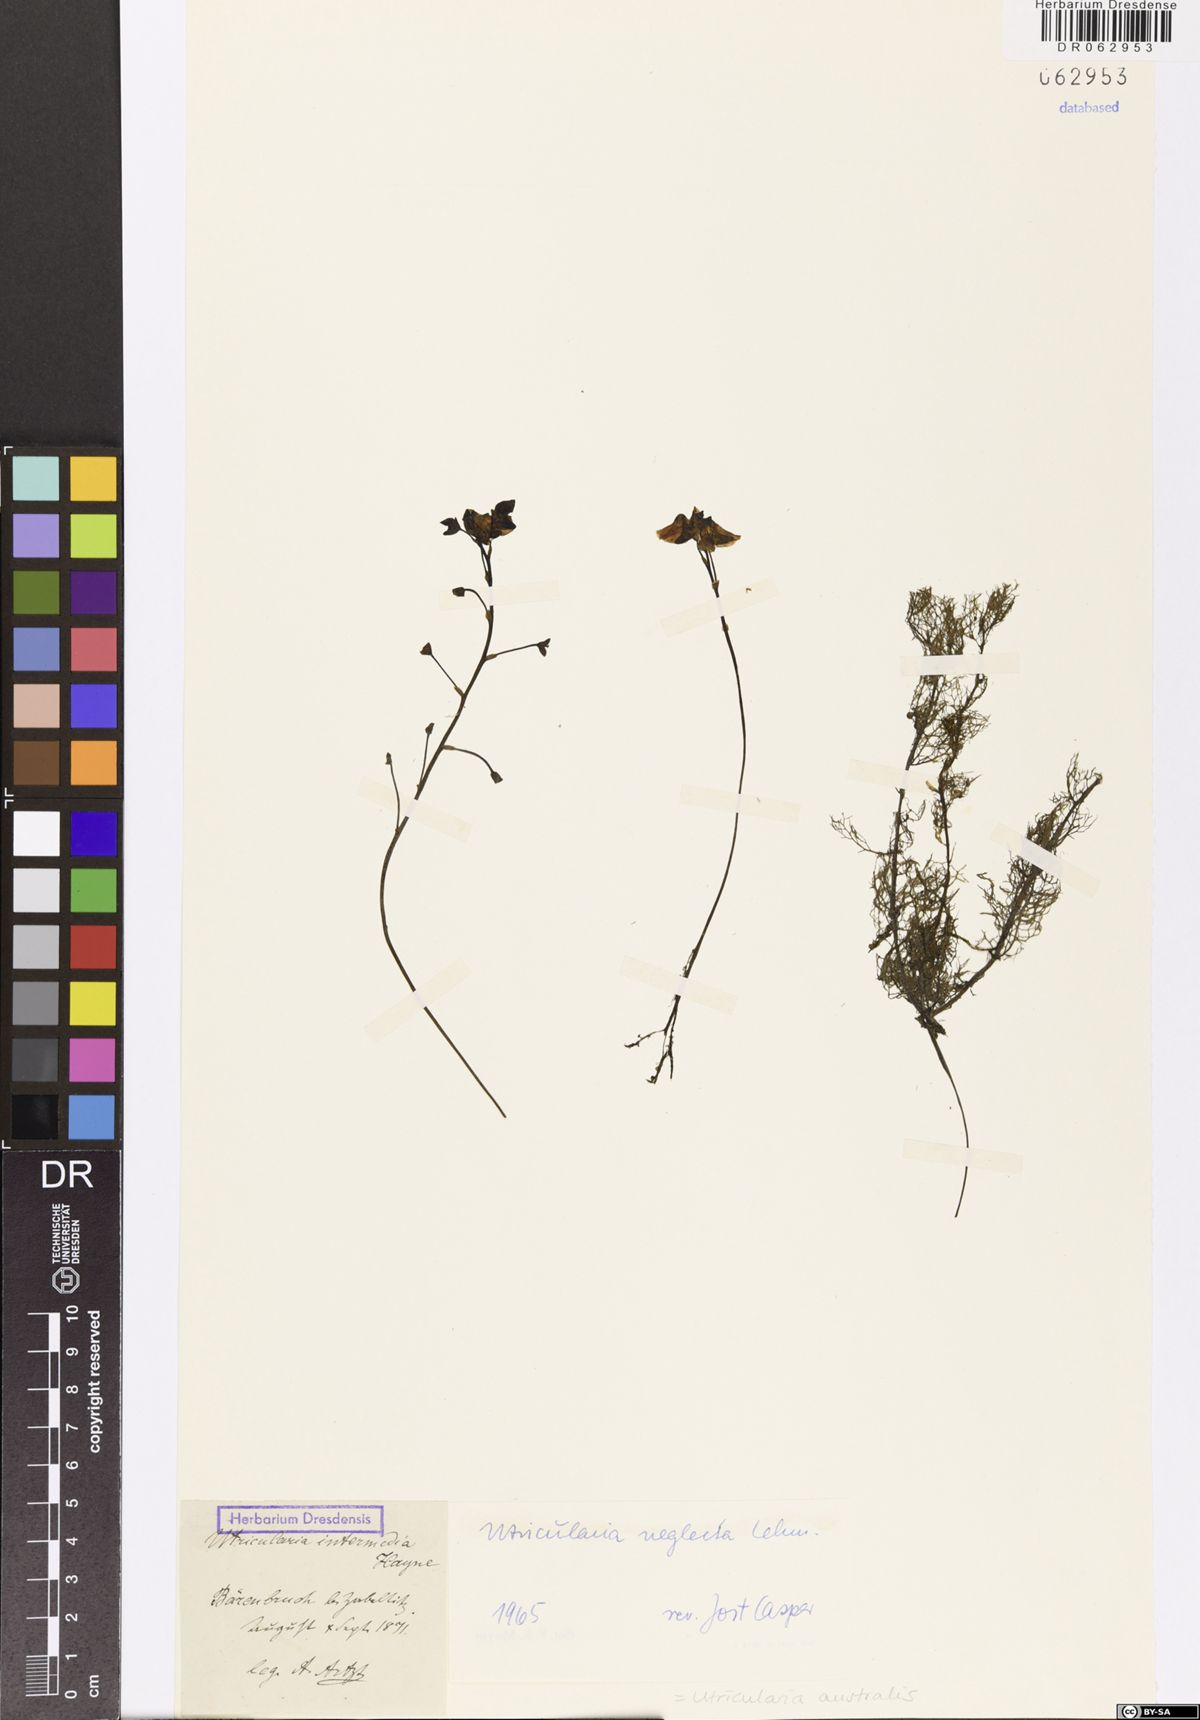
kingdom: Plantae
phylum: Tracheophyta
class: Magnoliopsida
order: Lamiales
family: Lentibulariaceae
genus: Utricularia
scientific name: Utricularia australis
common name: Bladderwort
